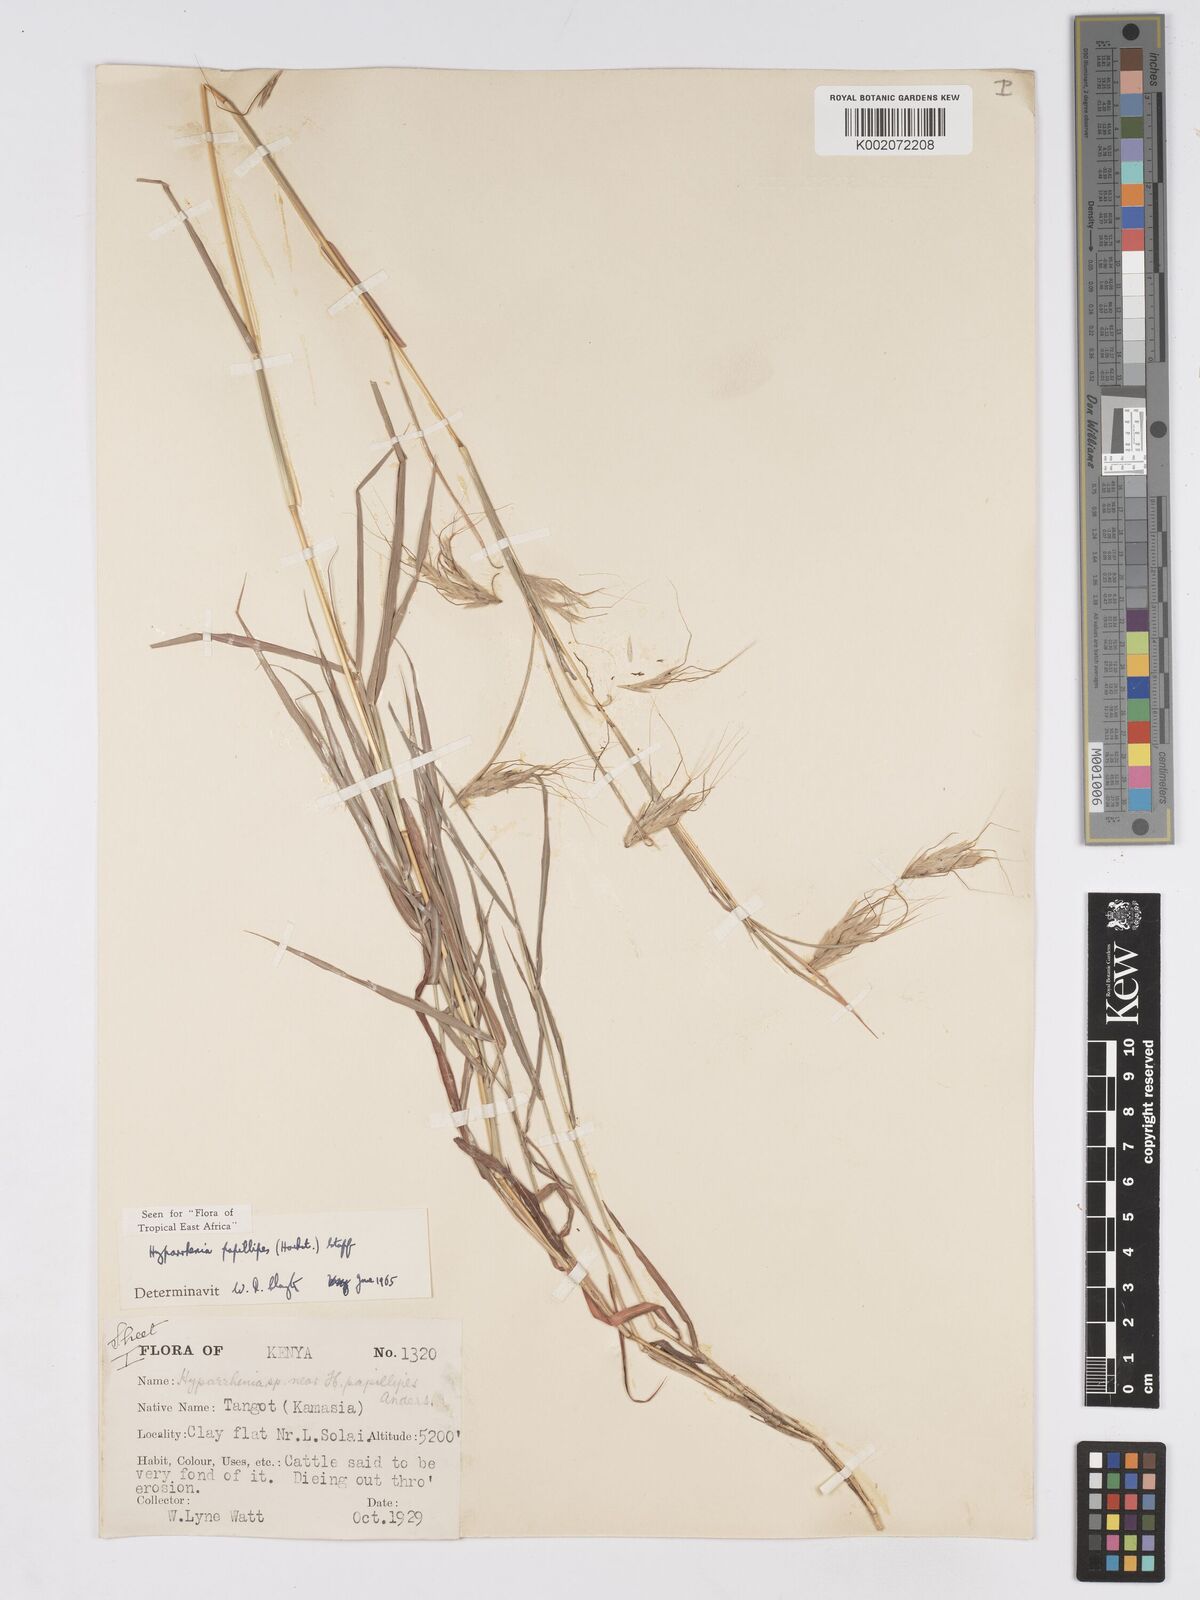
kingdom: Plantae
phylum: Tracheophyta
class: Liliopsida
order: Poales
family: Poaceae
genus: Hyparrhenia
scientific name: Hyparrhenia papillipes
